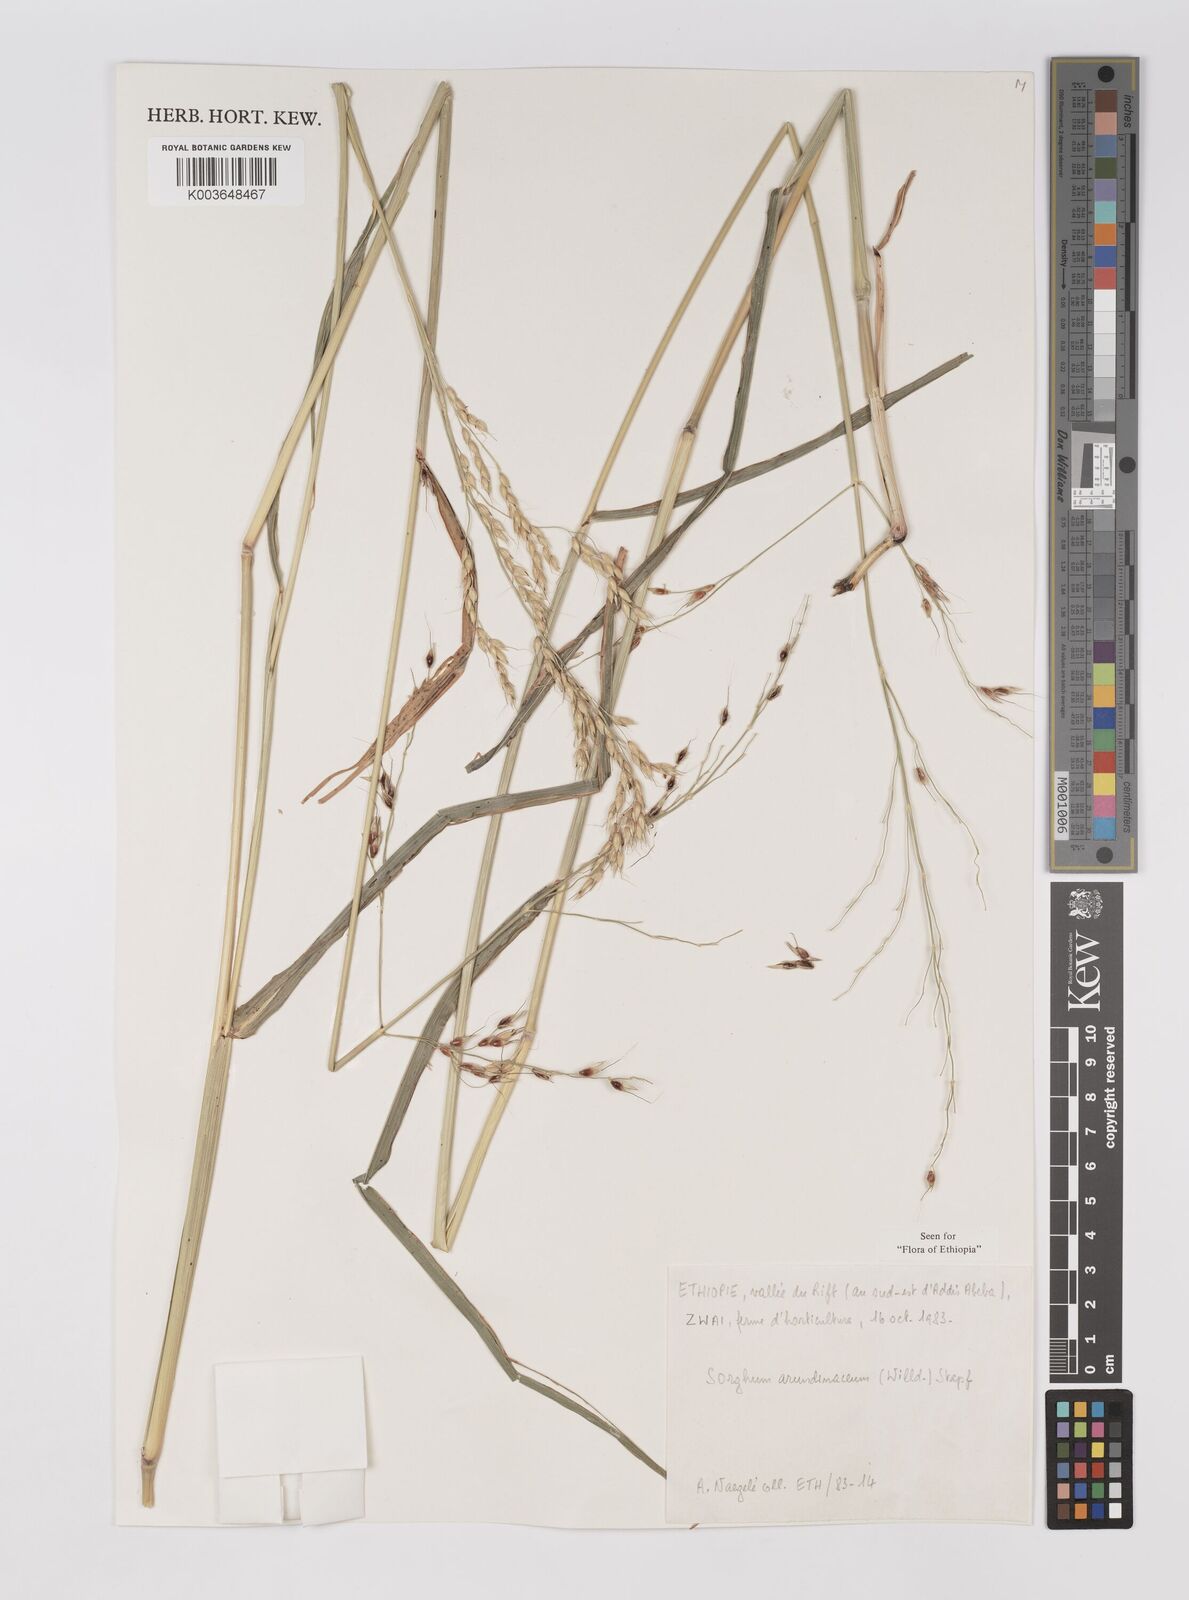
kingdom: Plantae
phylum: Tracheophyta
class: Liliopsida
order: Poales
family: Poaceae
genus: Sorghum
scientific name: Sorghum arundinaceum
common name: Sorghum
